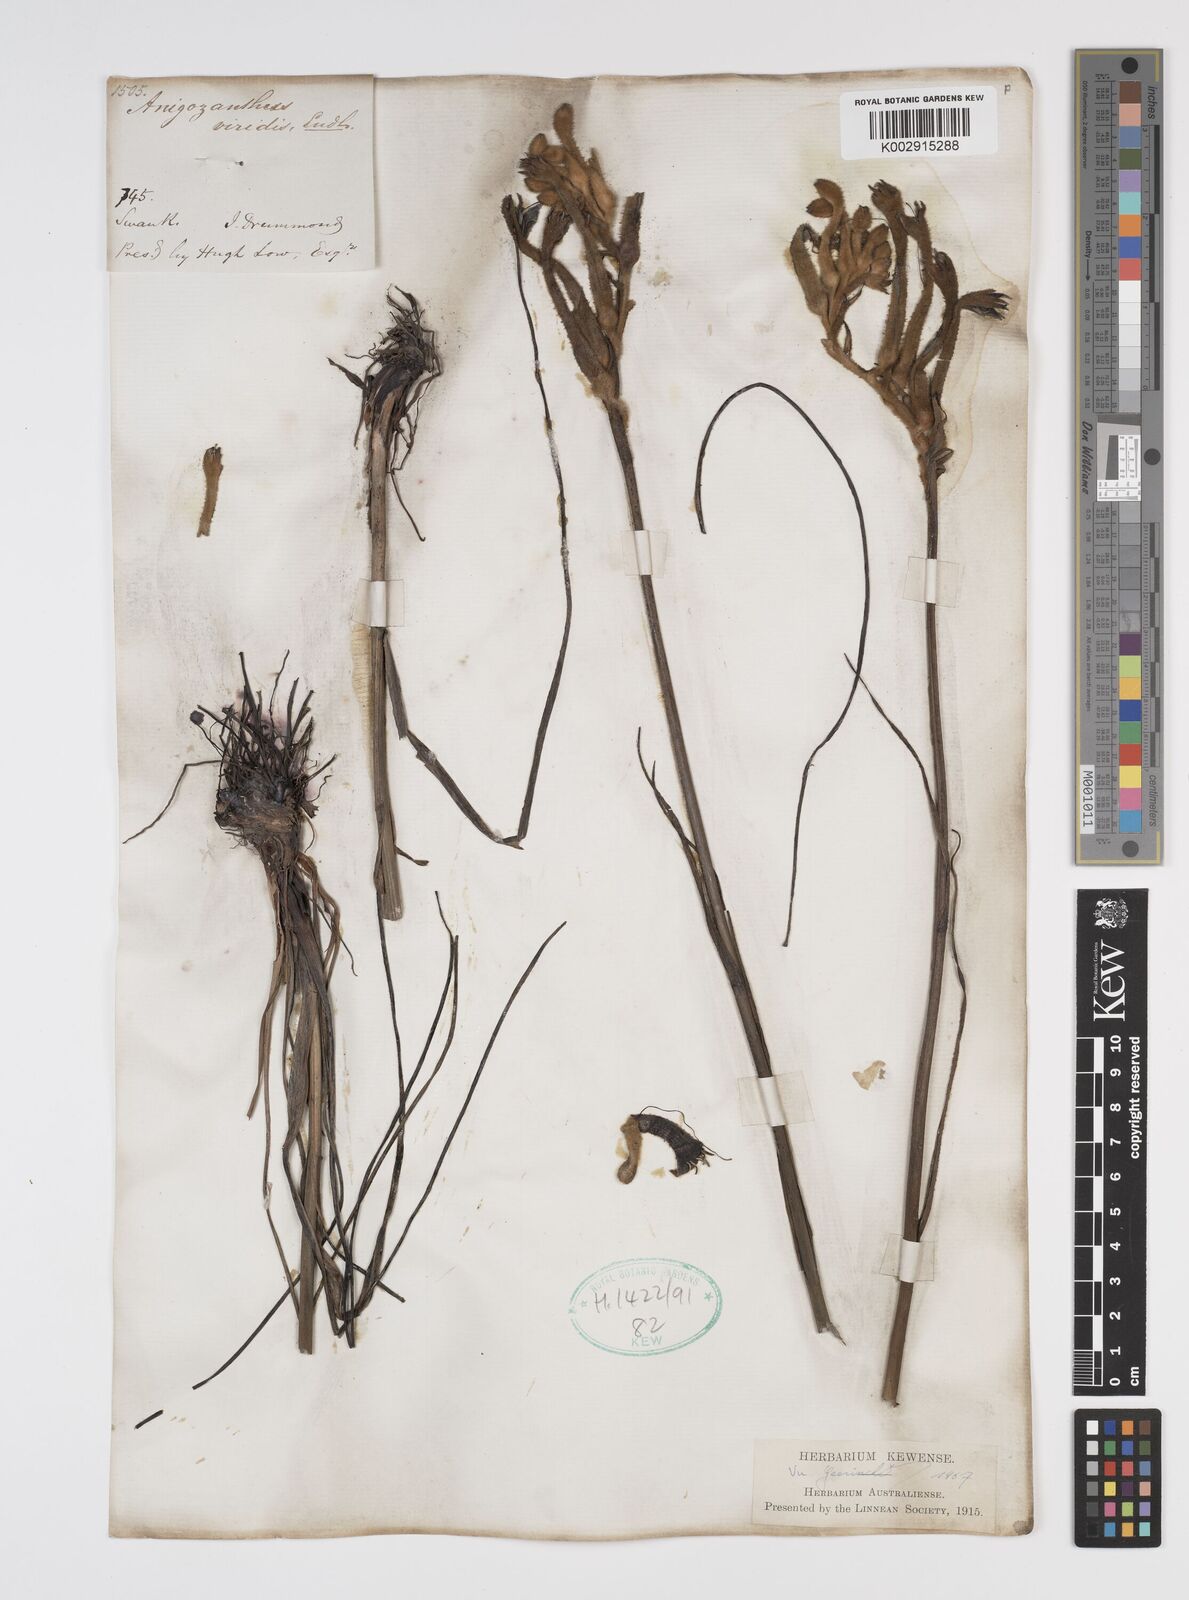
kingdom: Plantae
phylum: Tracheophyta
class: Liliopsida
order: Commelinales
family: Haemodoraceae
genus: Anigozanthos
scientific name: Anigozanthos viridis
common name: Green kangaroo-paw
